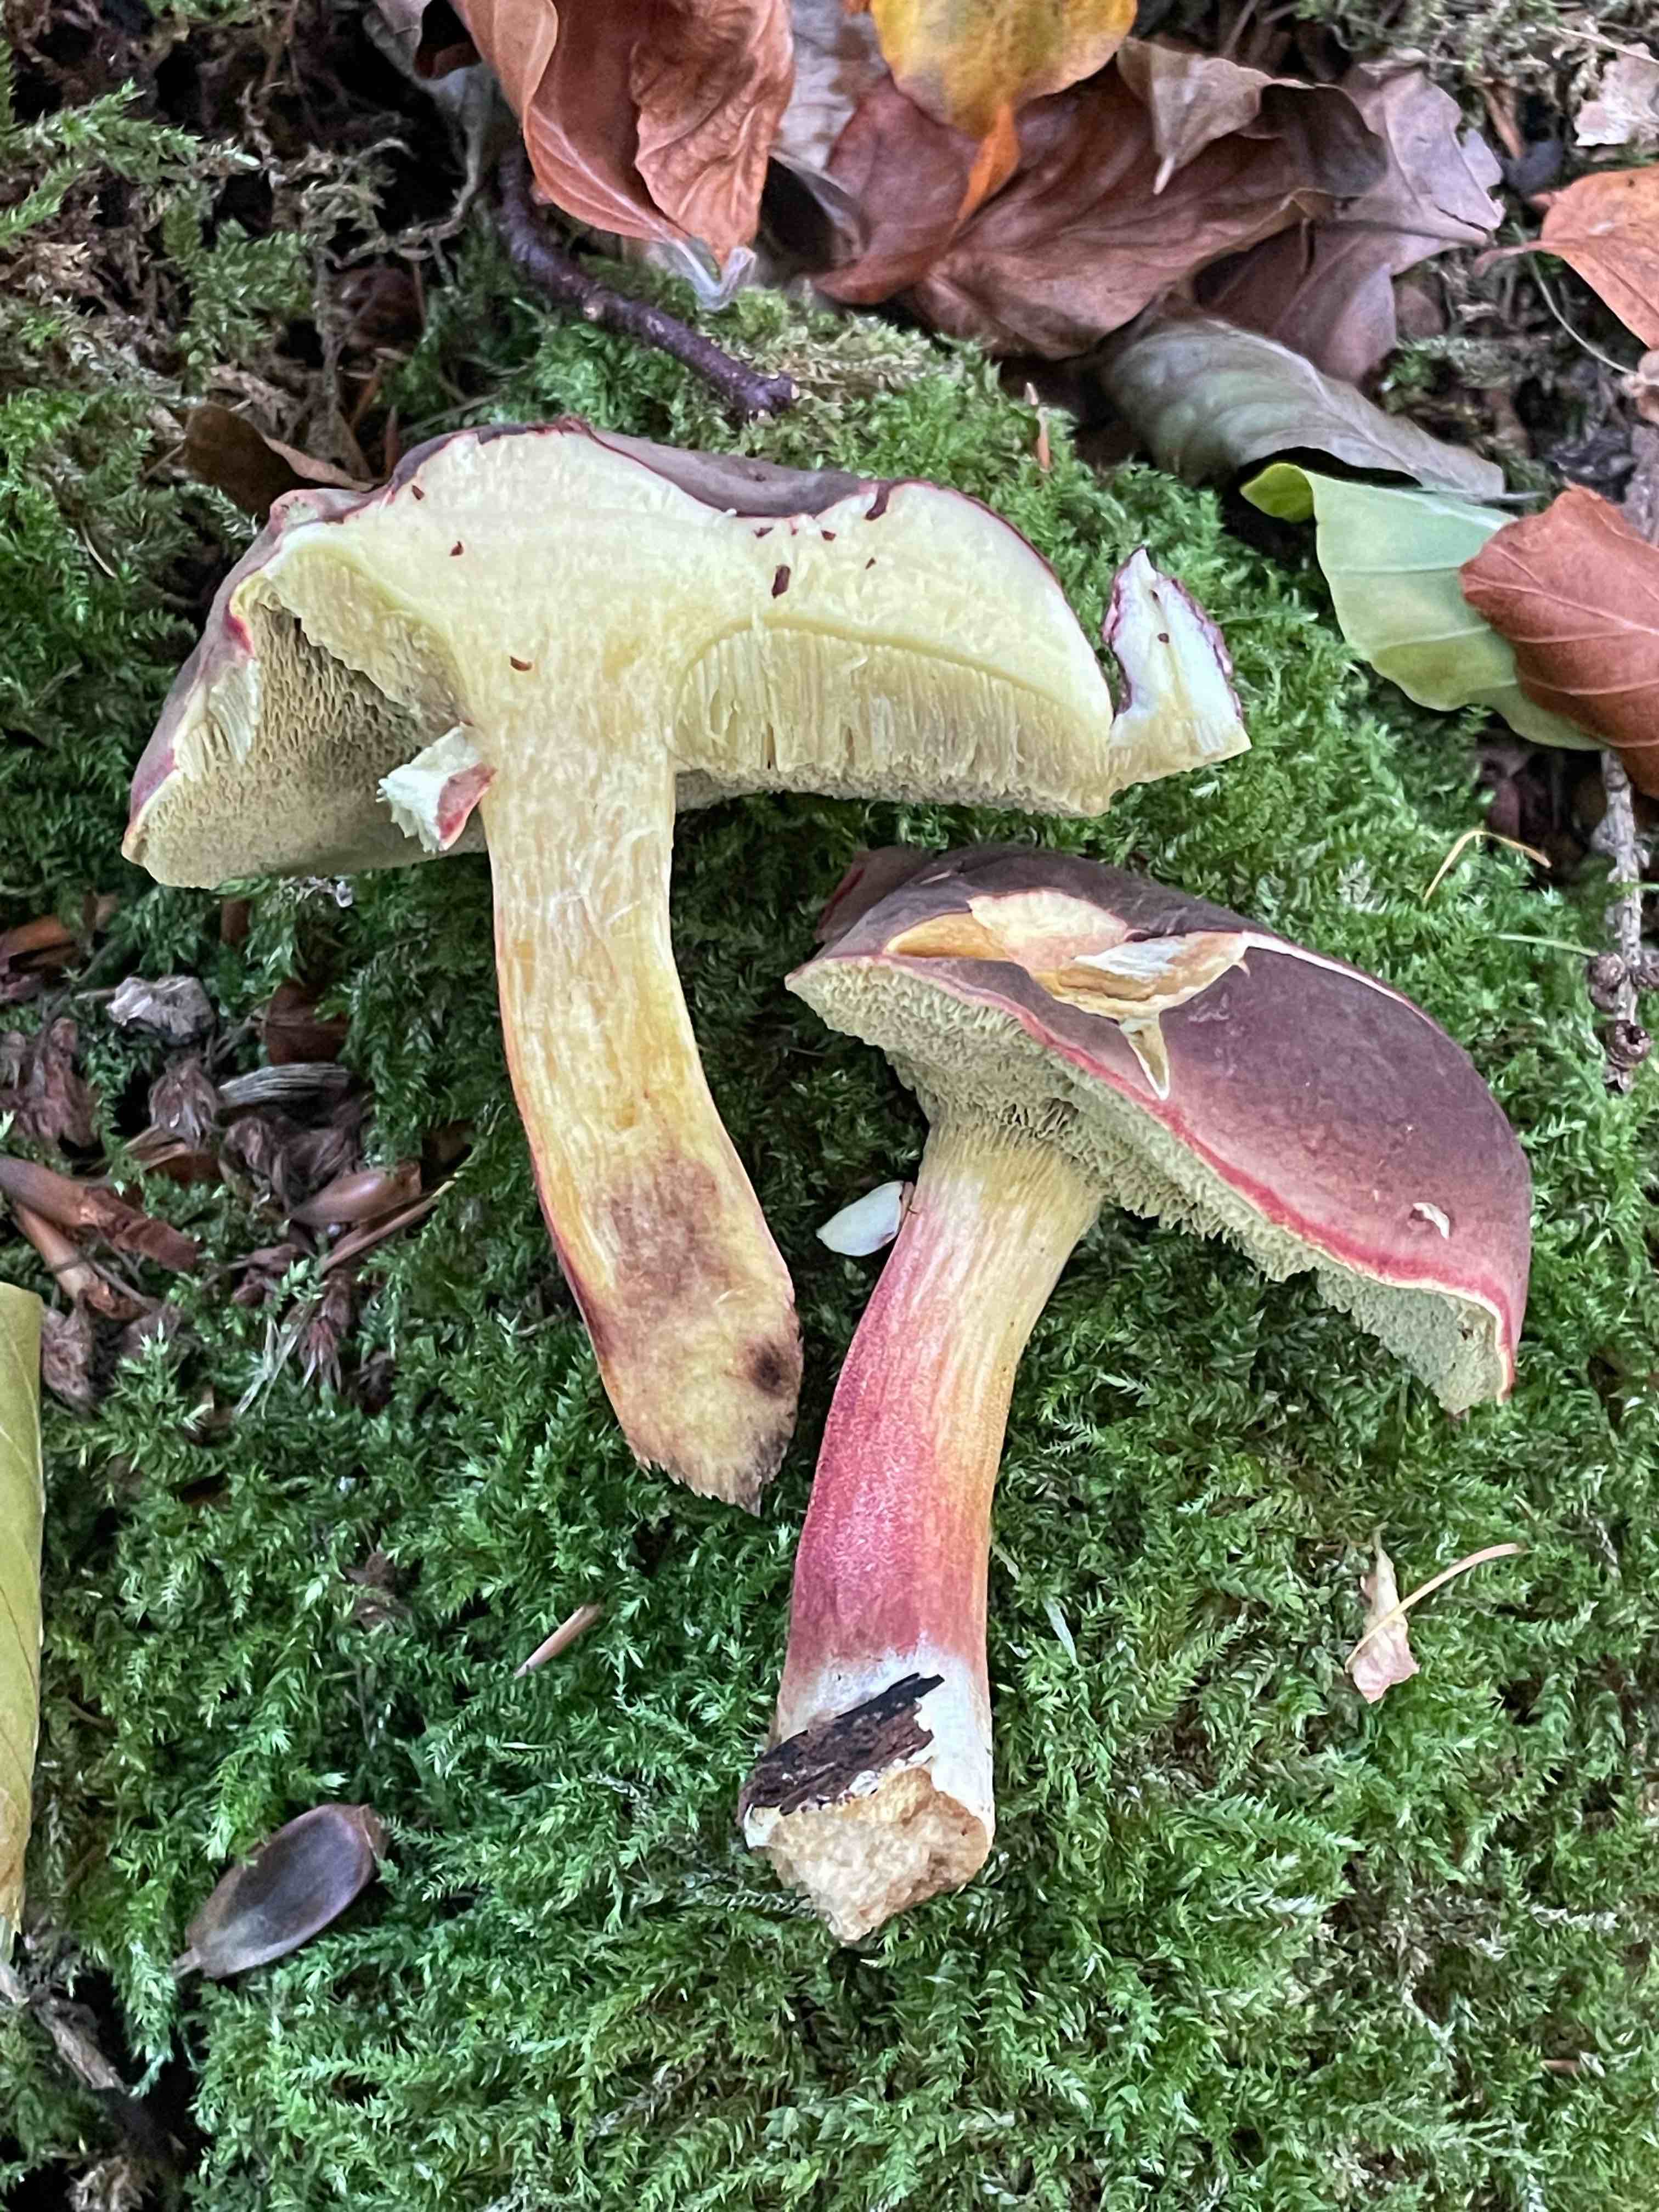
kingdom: Fungi
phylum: Basidiomycota
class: Agaricomycetes
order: Boletales
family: Boletaceae
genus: Xerocomellus
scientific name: Xerocomellus pruinatus
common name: dugget rørhat
